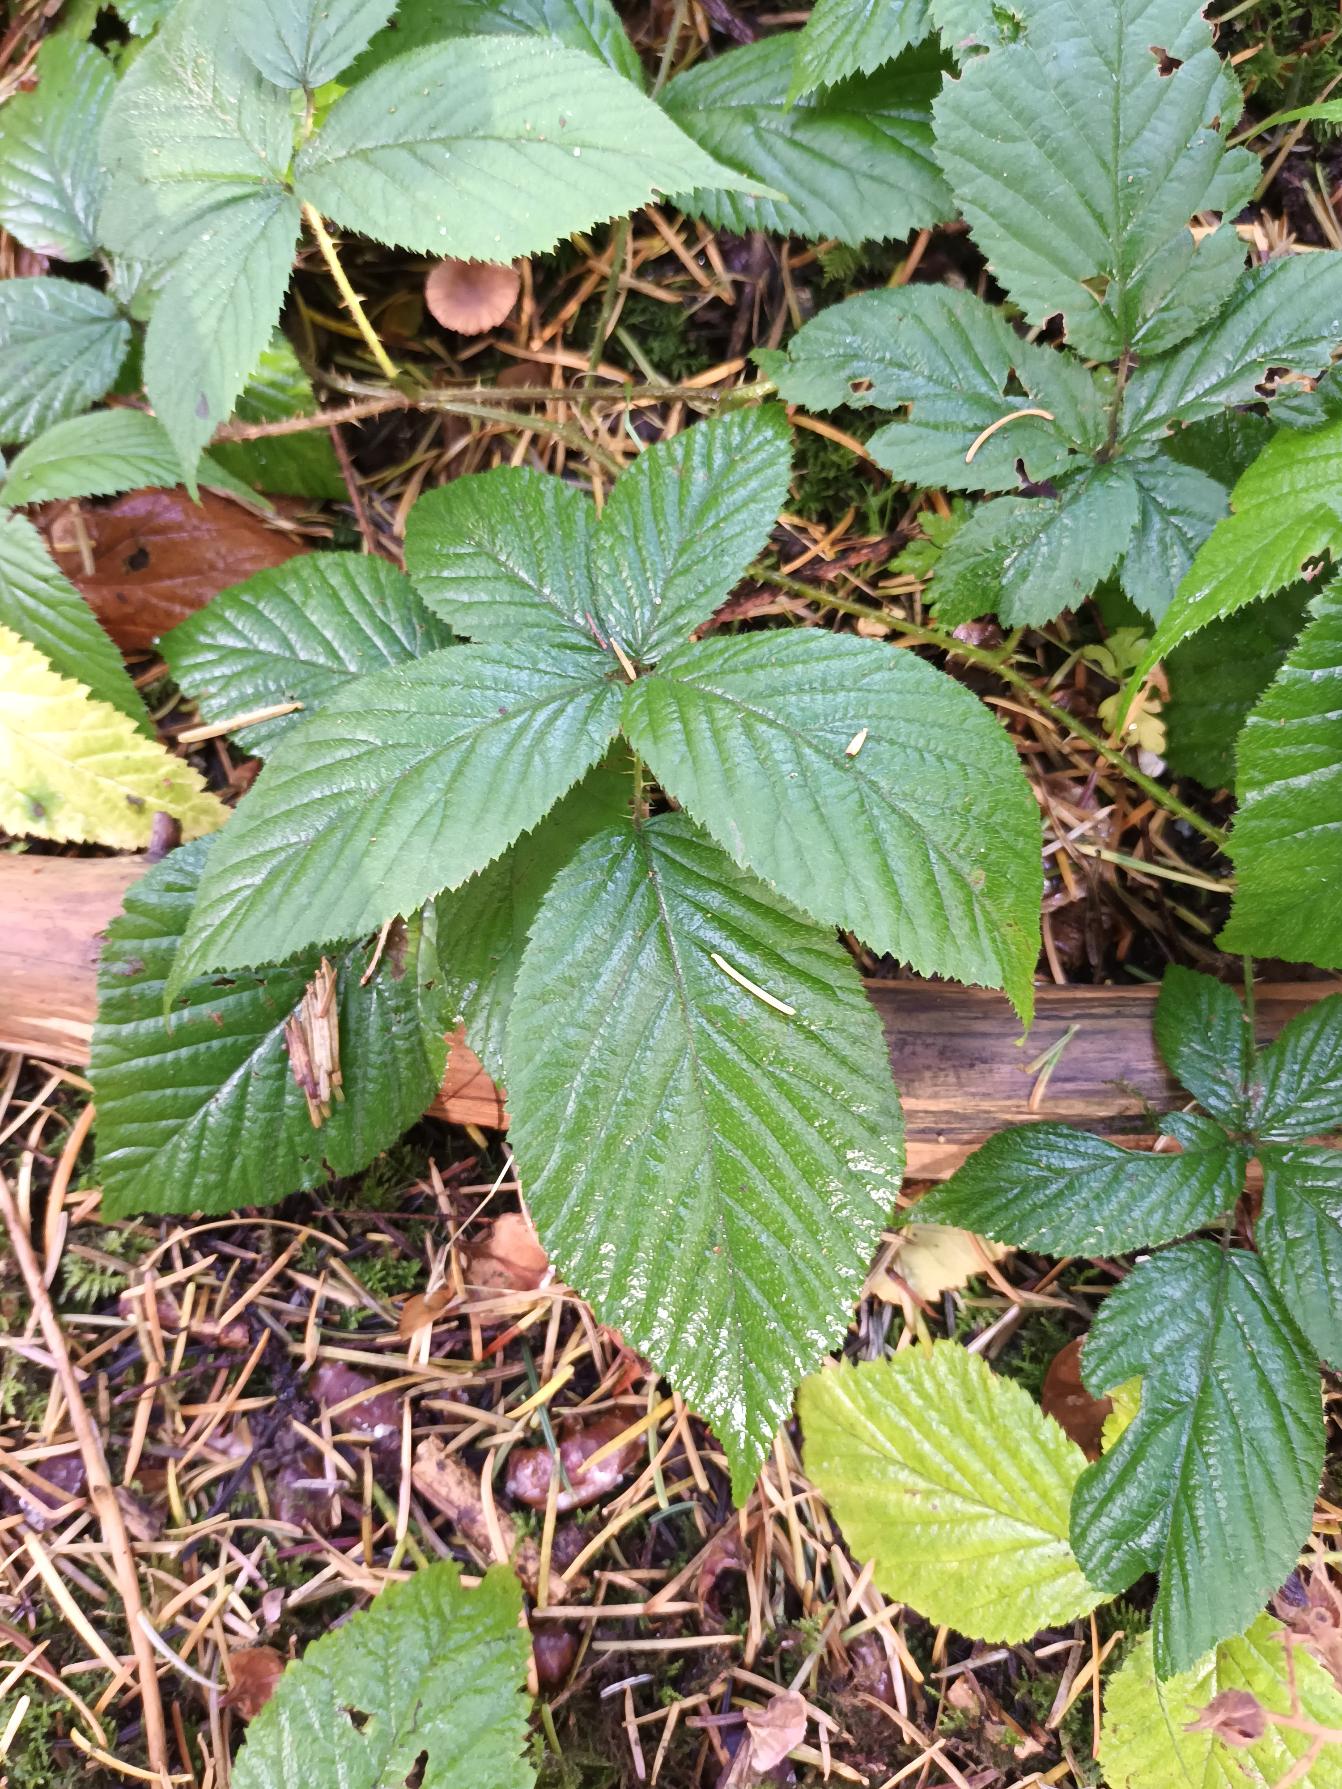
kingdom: Plantae
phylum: Tracheophyta
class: Magnoliopsida
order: Rosales
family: Rosaceae
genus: Rubus
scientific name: Rubus pallidus
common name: Blegblomstret brombær
